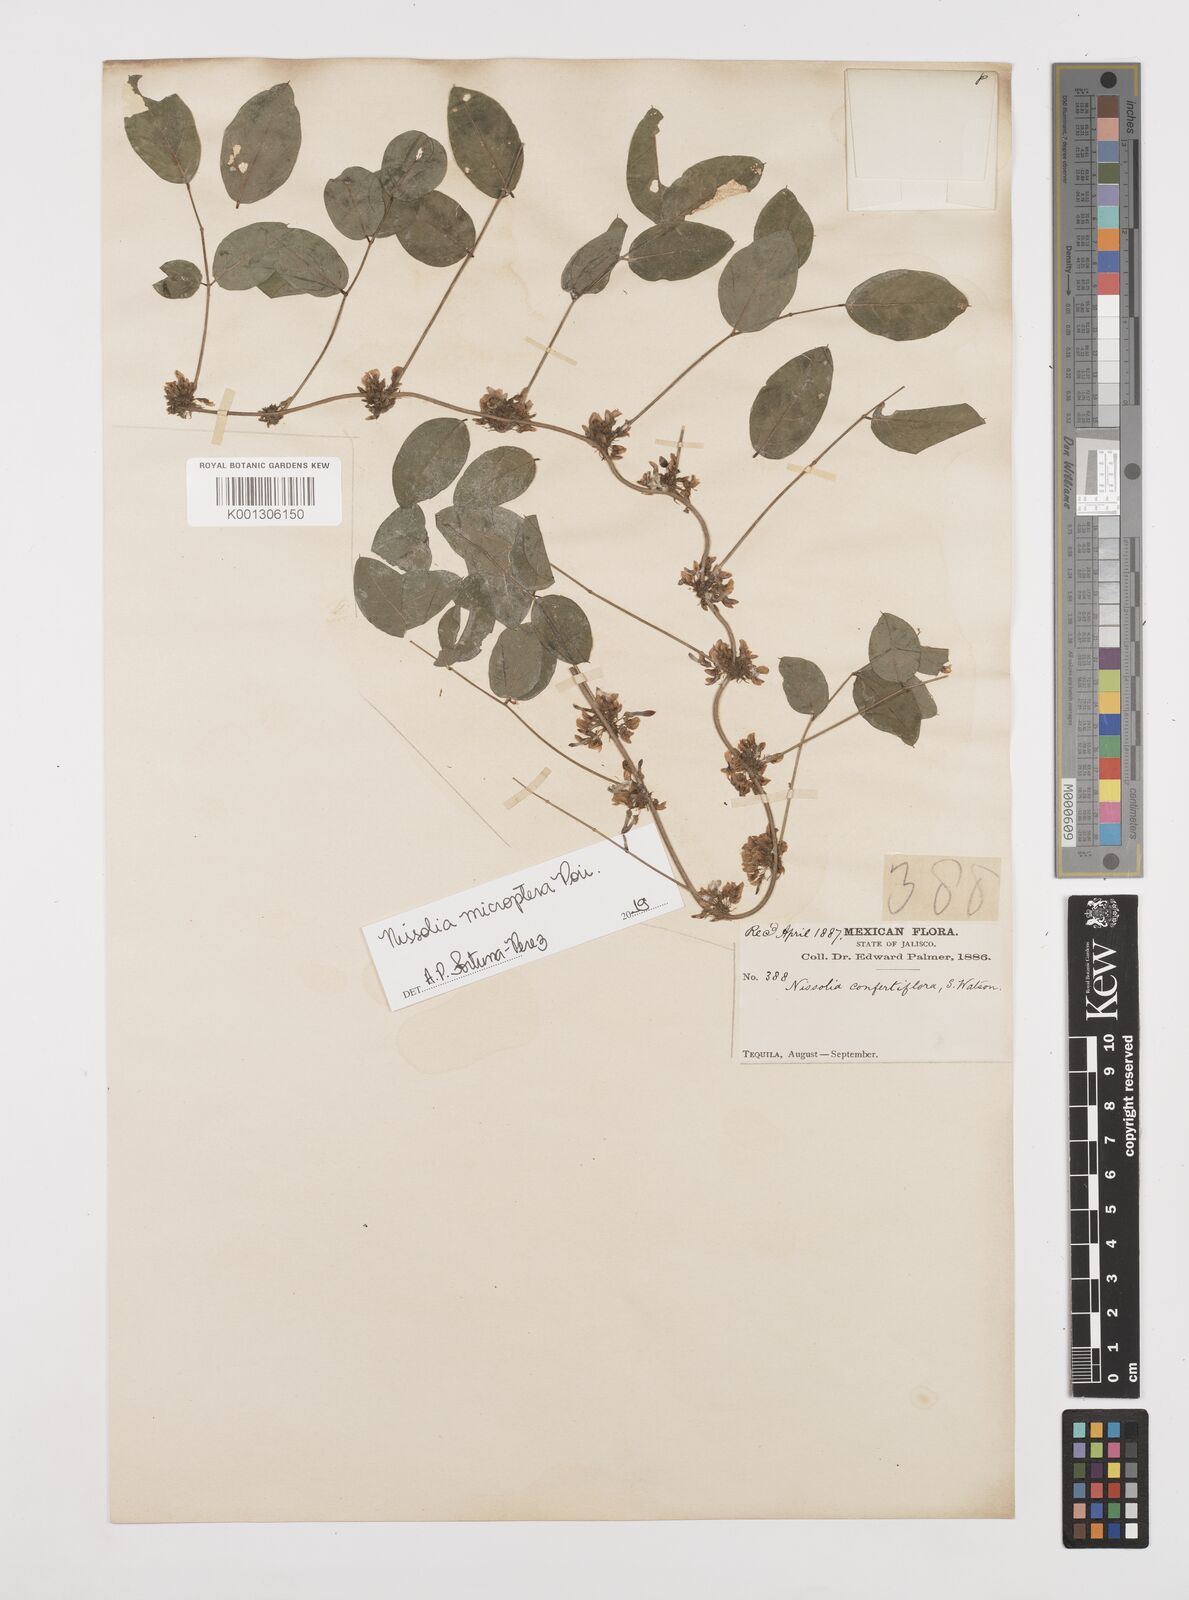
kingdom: Plantae
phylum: Tracheophyta
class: Magnoliopsida
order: Fabales
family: Fabaceae
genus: Nissolia
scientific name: Nissolia microptera
